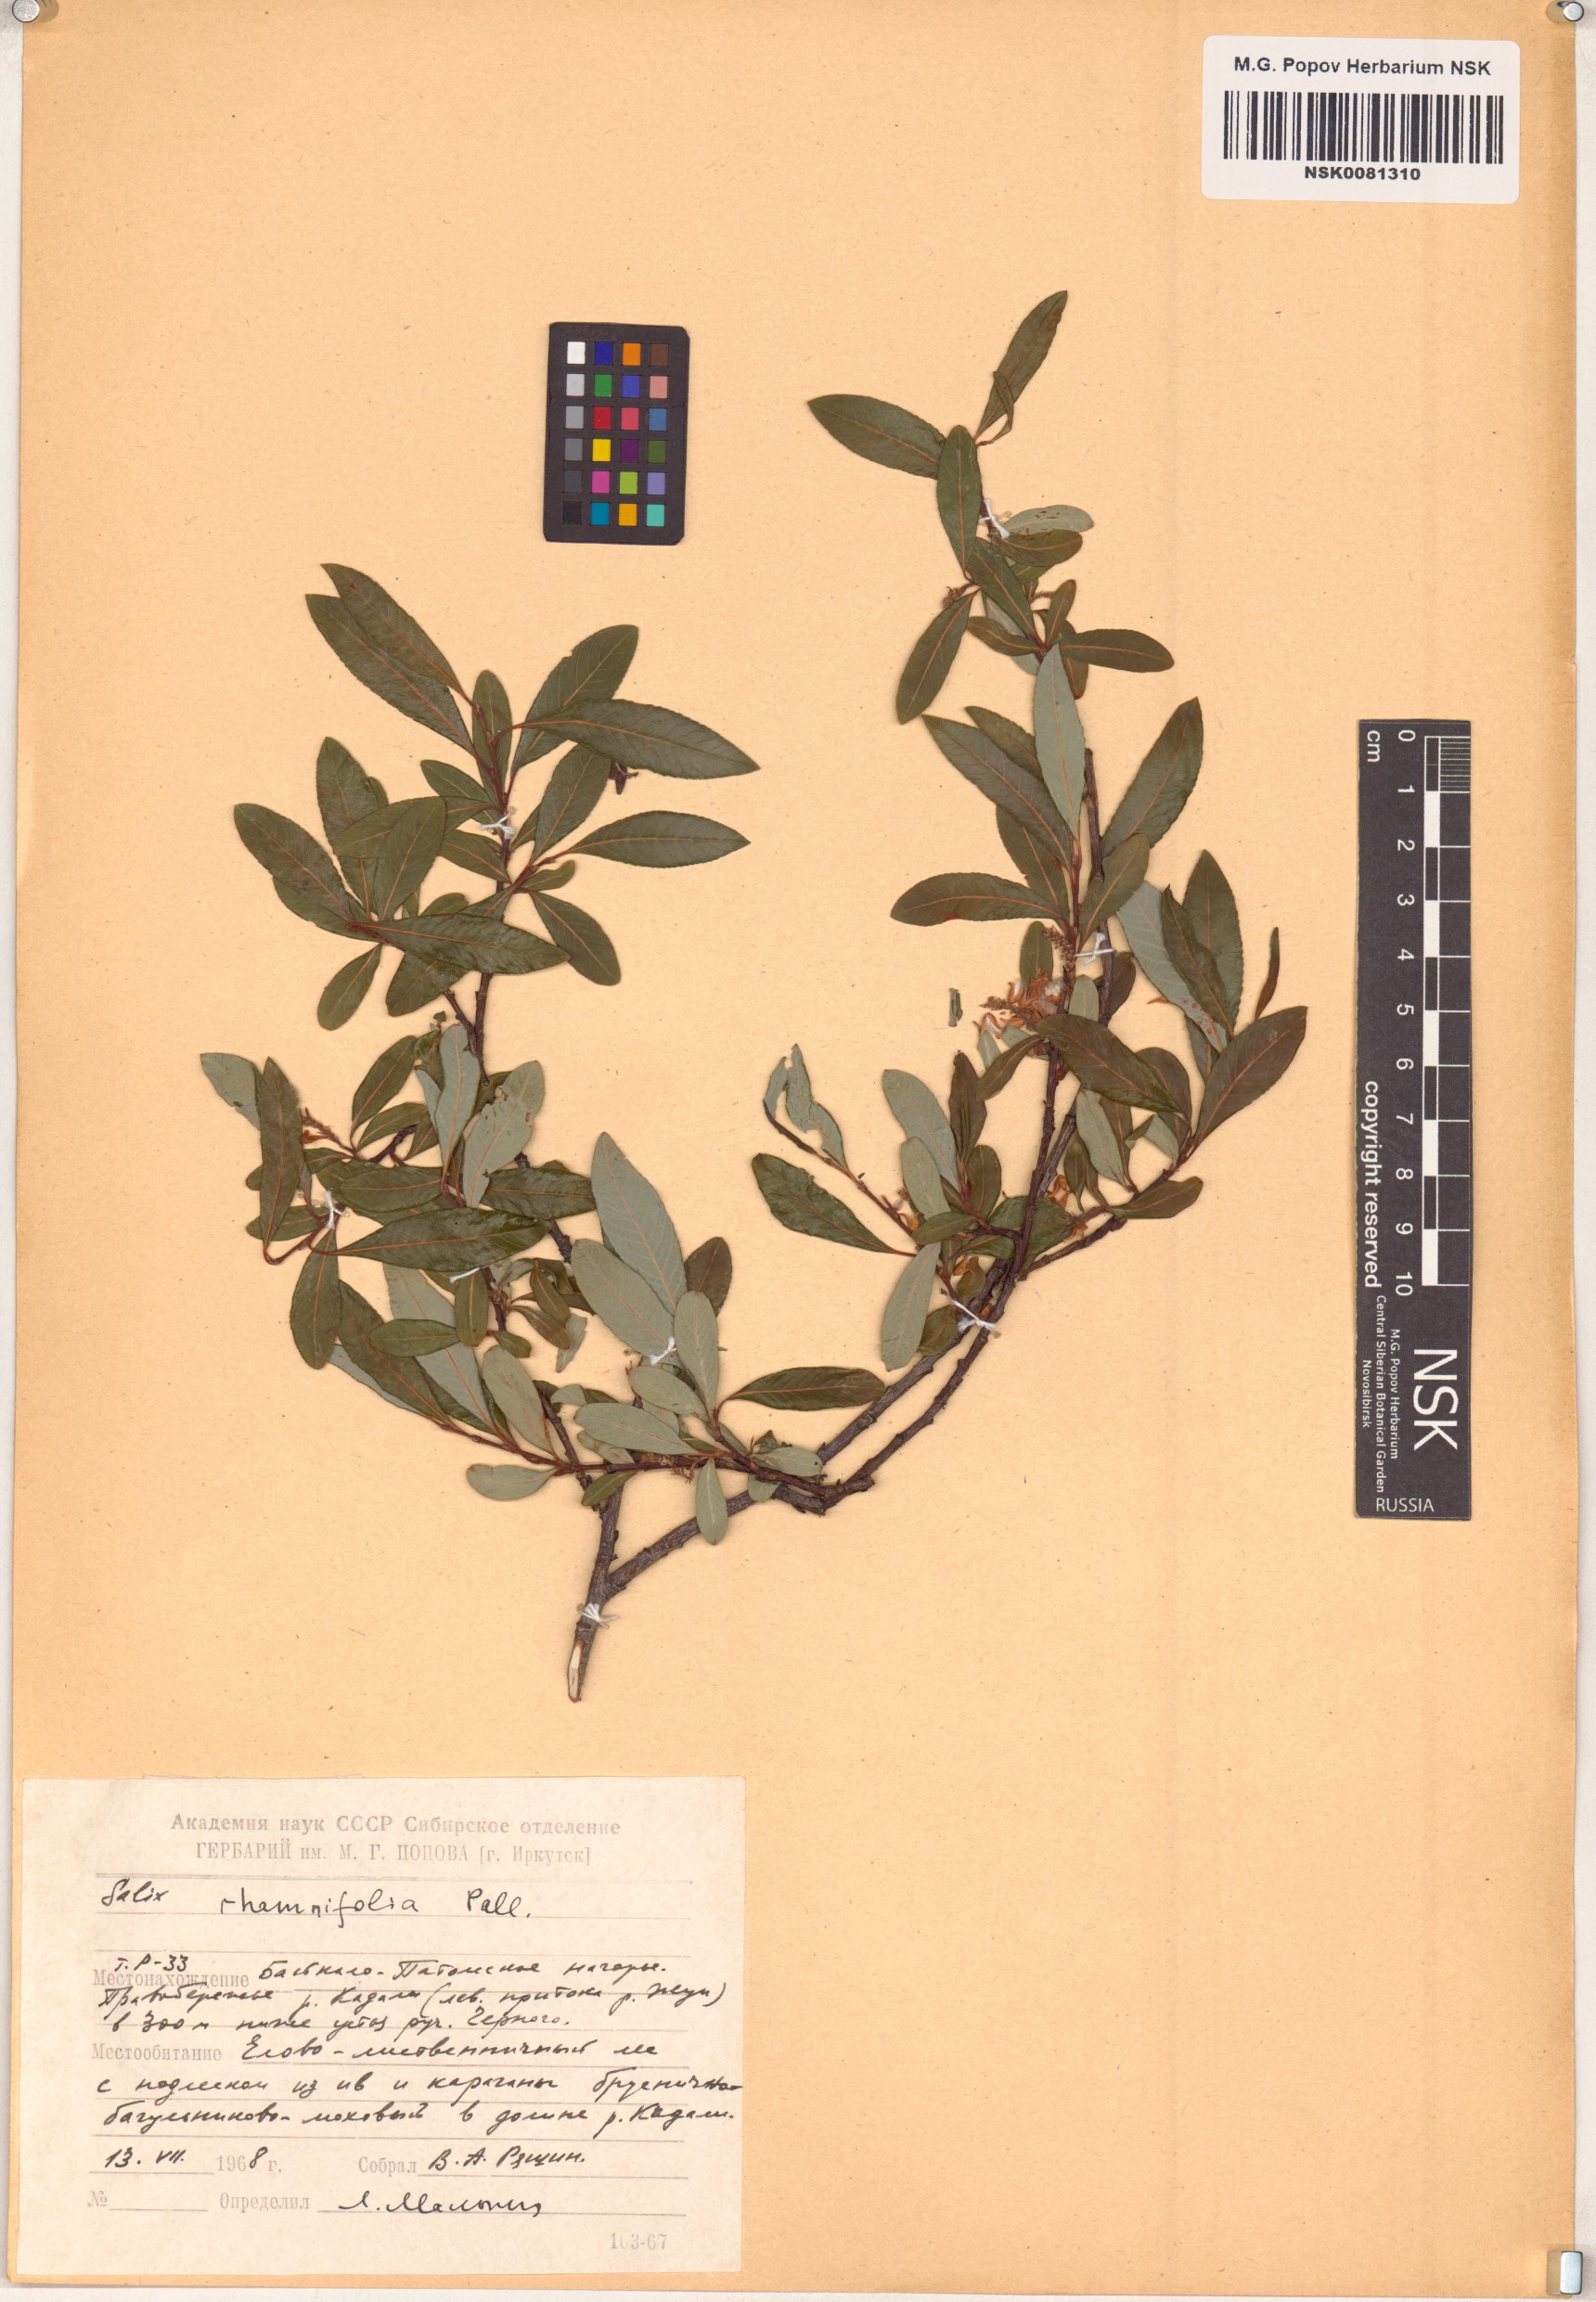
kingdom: Plantae
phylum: Tracheophyta
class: Magnoliopsida
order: Malpighiales
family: Salicaceae
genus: Salix
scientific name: Salix rhamnifolia
